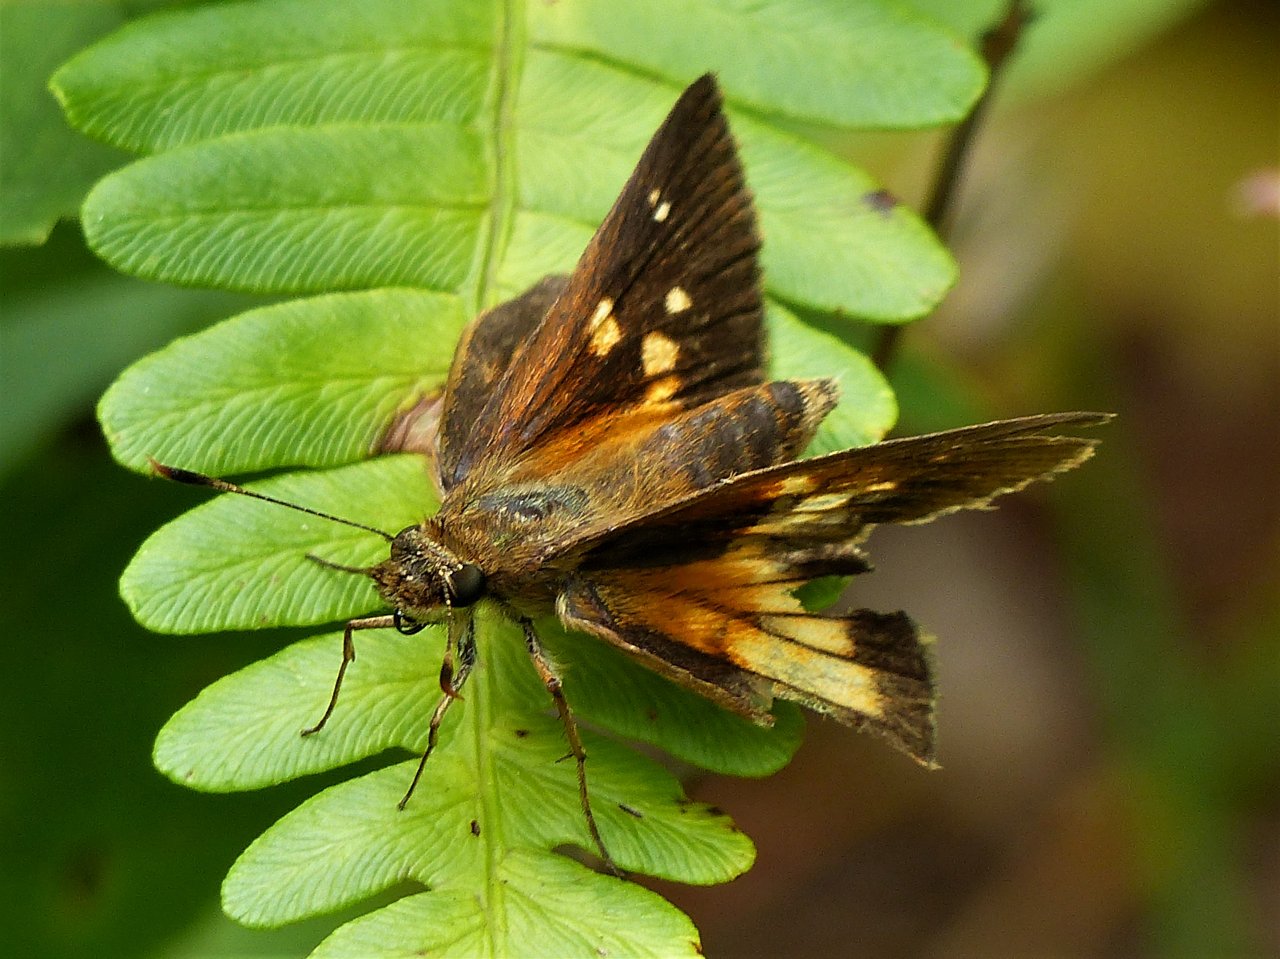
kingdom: Animalia
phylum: Arthropoda
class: Insecta
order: Lepidoptera
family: Hesperiidae
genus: Poanes
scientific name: Poanes viator
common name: Broad-winged Skipper
